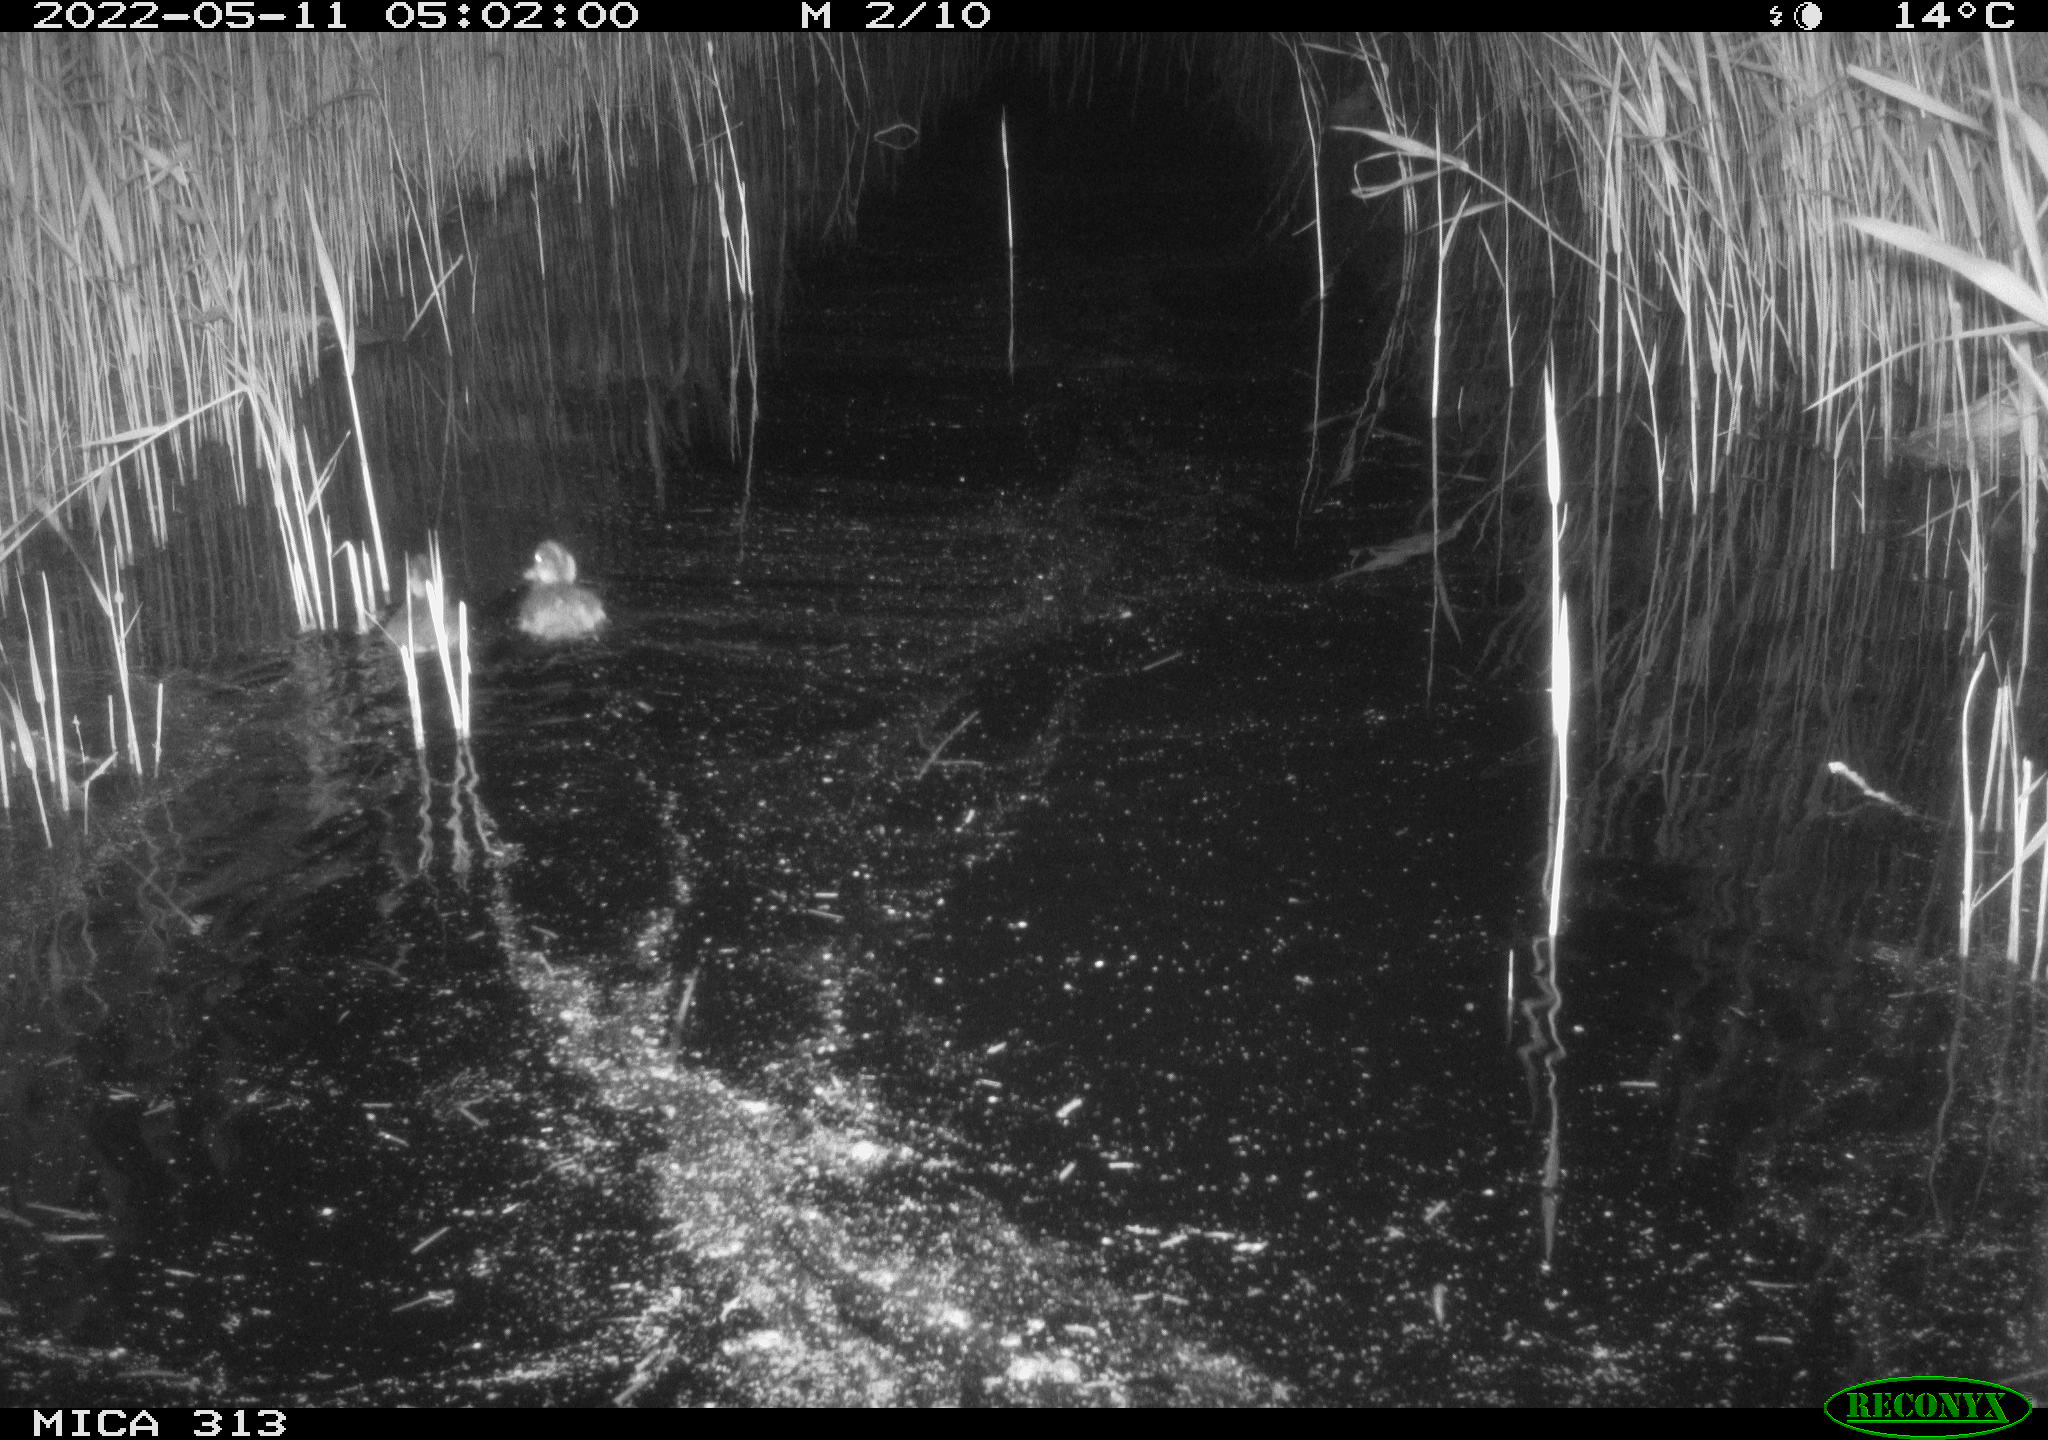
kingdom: Animalia
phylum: Chordata
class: Aves
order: Anseriformes
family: Anatidae
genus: Anas
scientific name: Anas platyrhynchos
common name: Mallard
